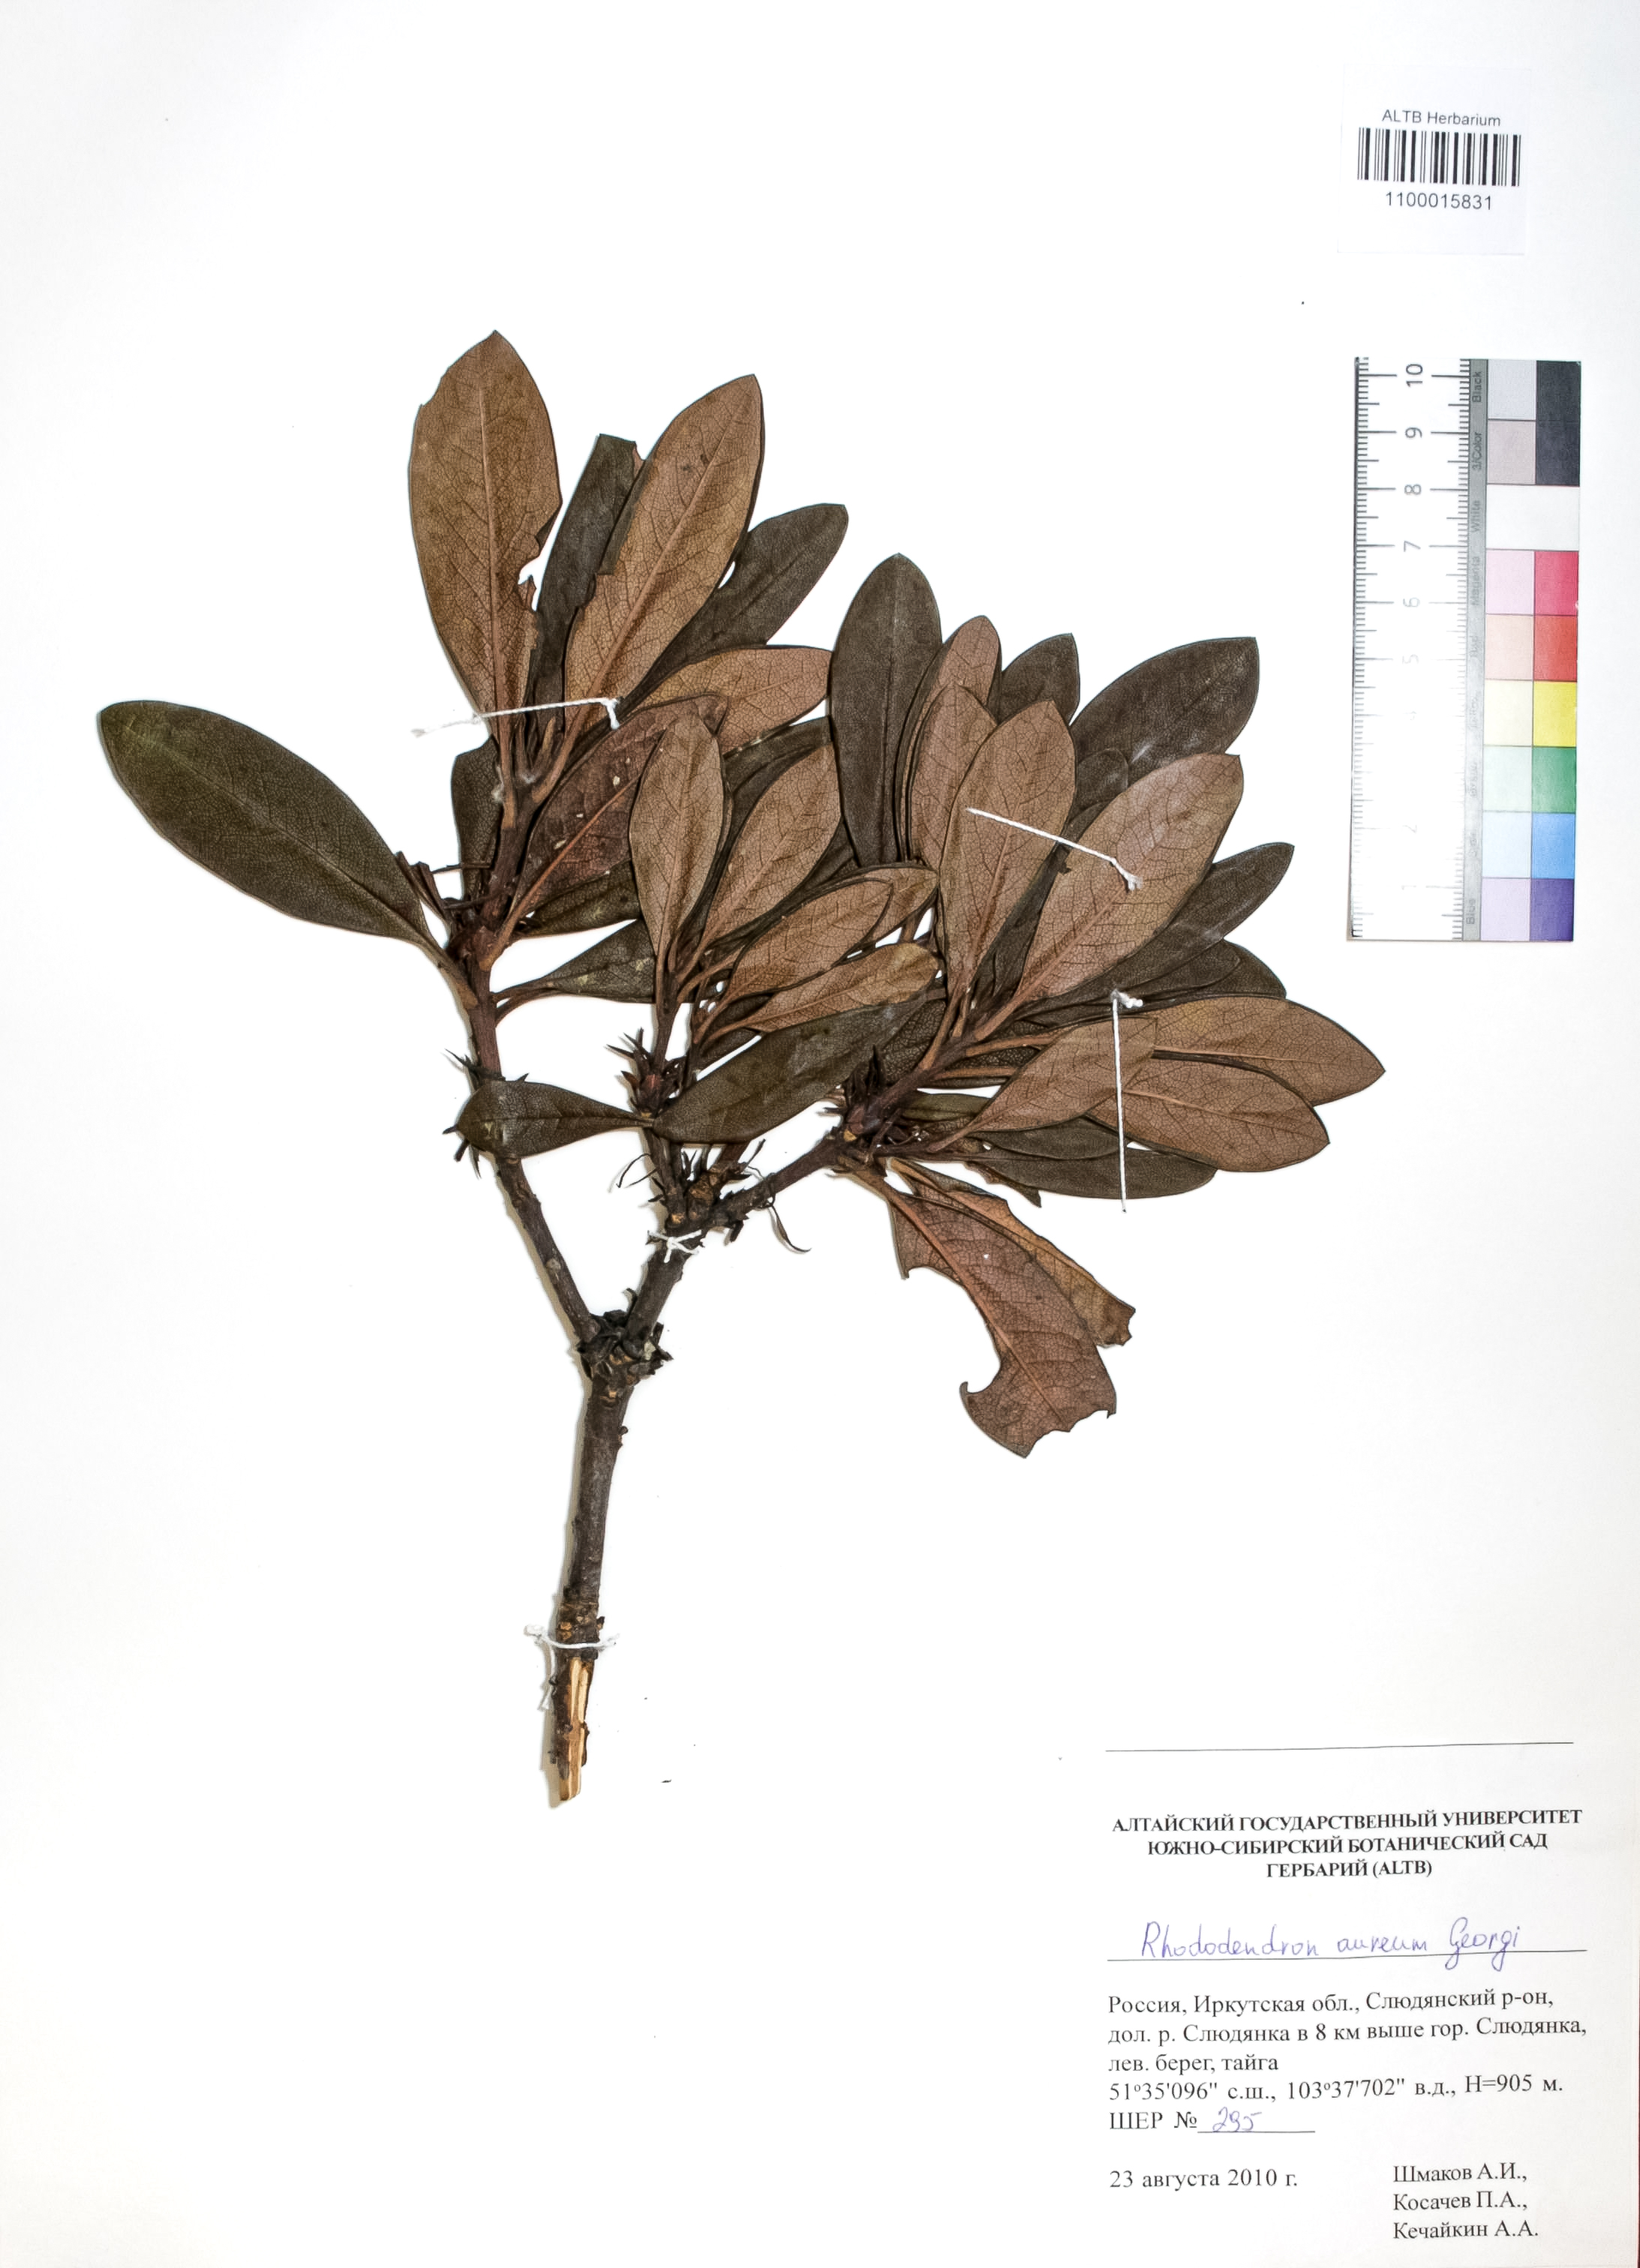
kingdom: Plantae
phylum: Tracheophyta
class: Magnoliopsida
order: Ericales
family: Ericaceae
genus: Rhododendron
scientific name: Rhododendron aureum
